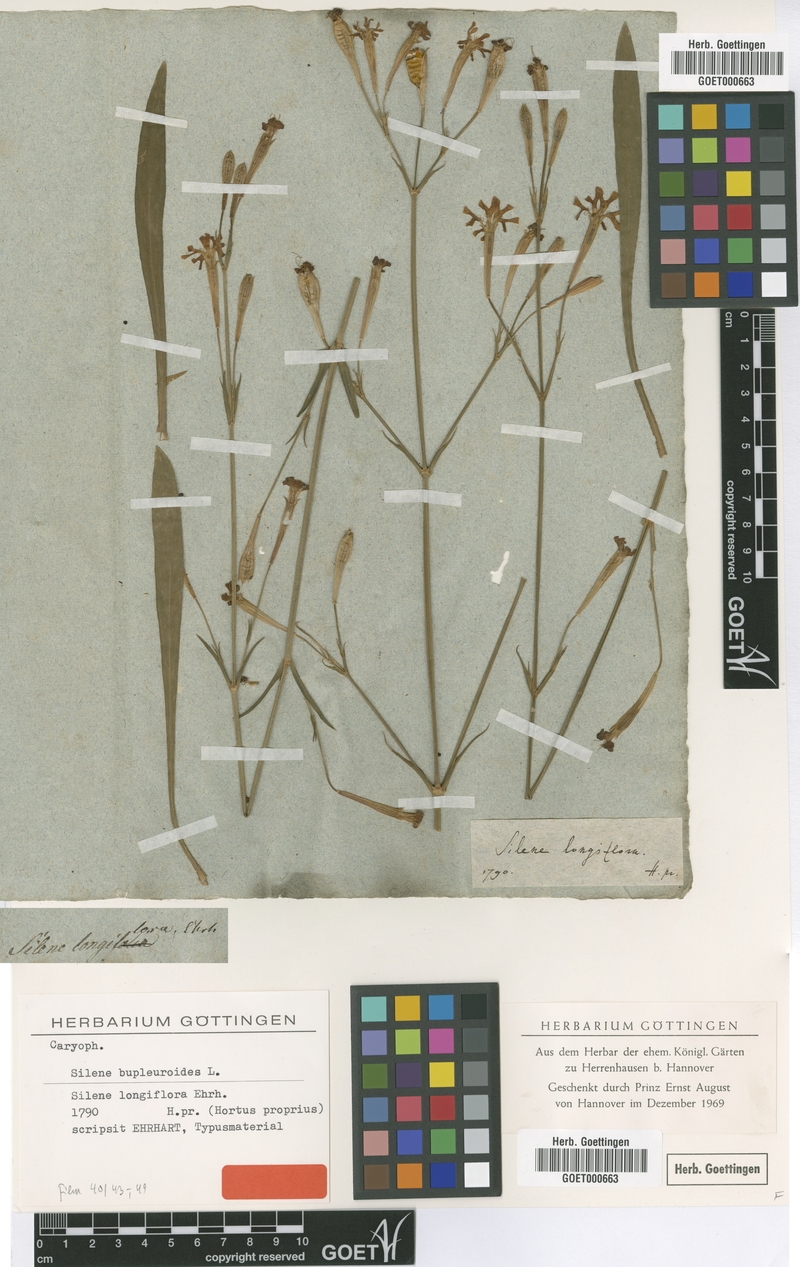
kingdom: Plantae
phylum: Tracheophyta
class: Magnoliopsida
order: Caryophyllales
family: Caryophyllaceae
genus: Silene
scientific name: Silene bupleuroides
